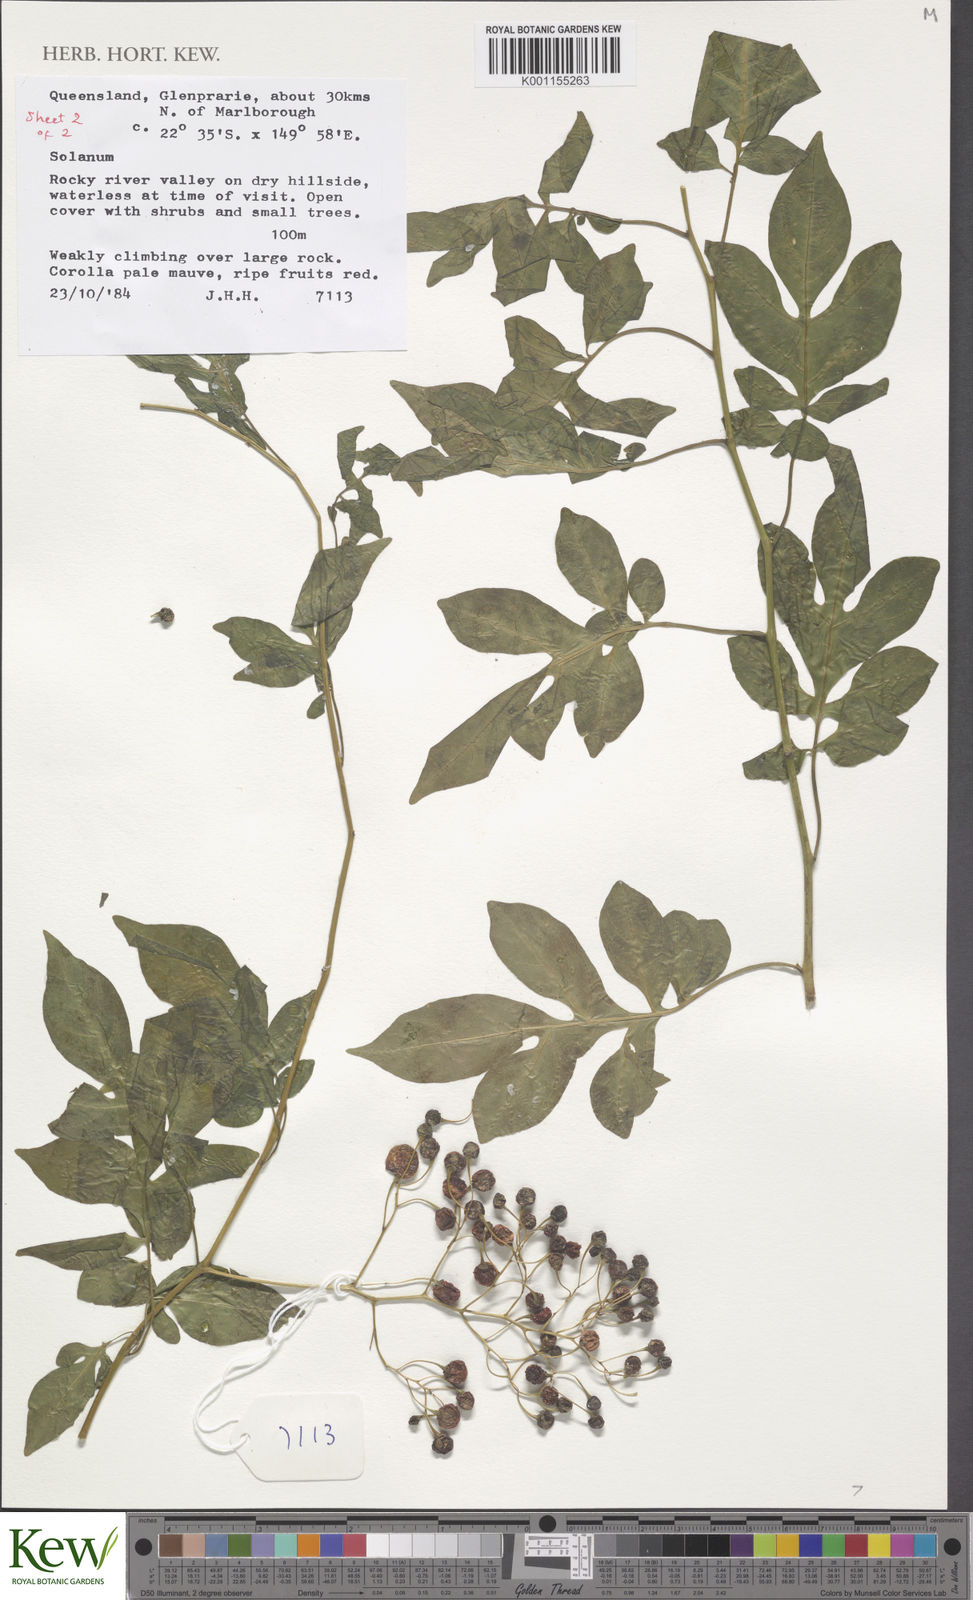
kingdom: Plantae
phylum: Tracheophyta
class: Magnoliopsida
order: Solanales
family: Solanaceae
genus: Solanum
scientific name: Solanum
